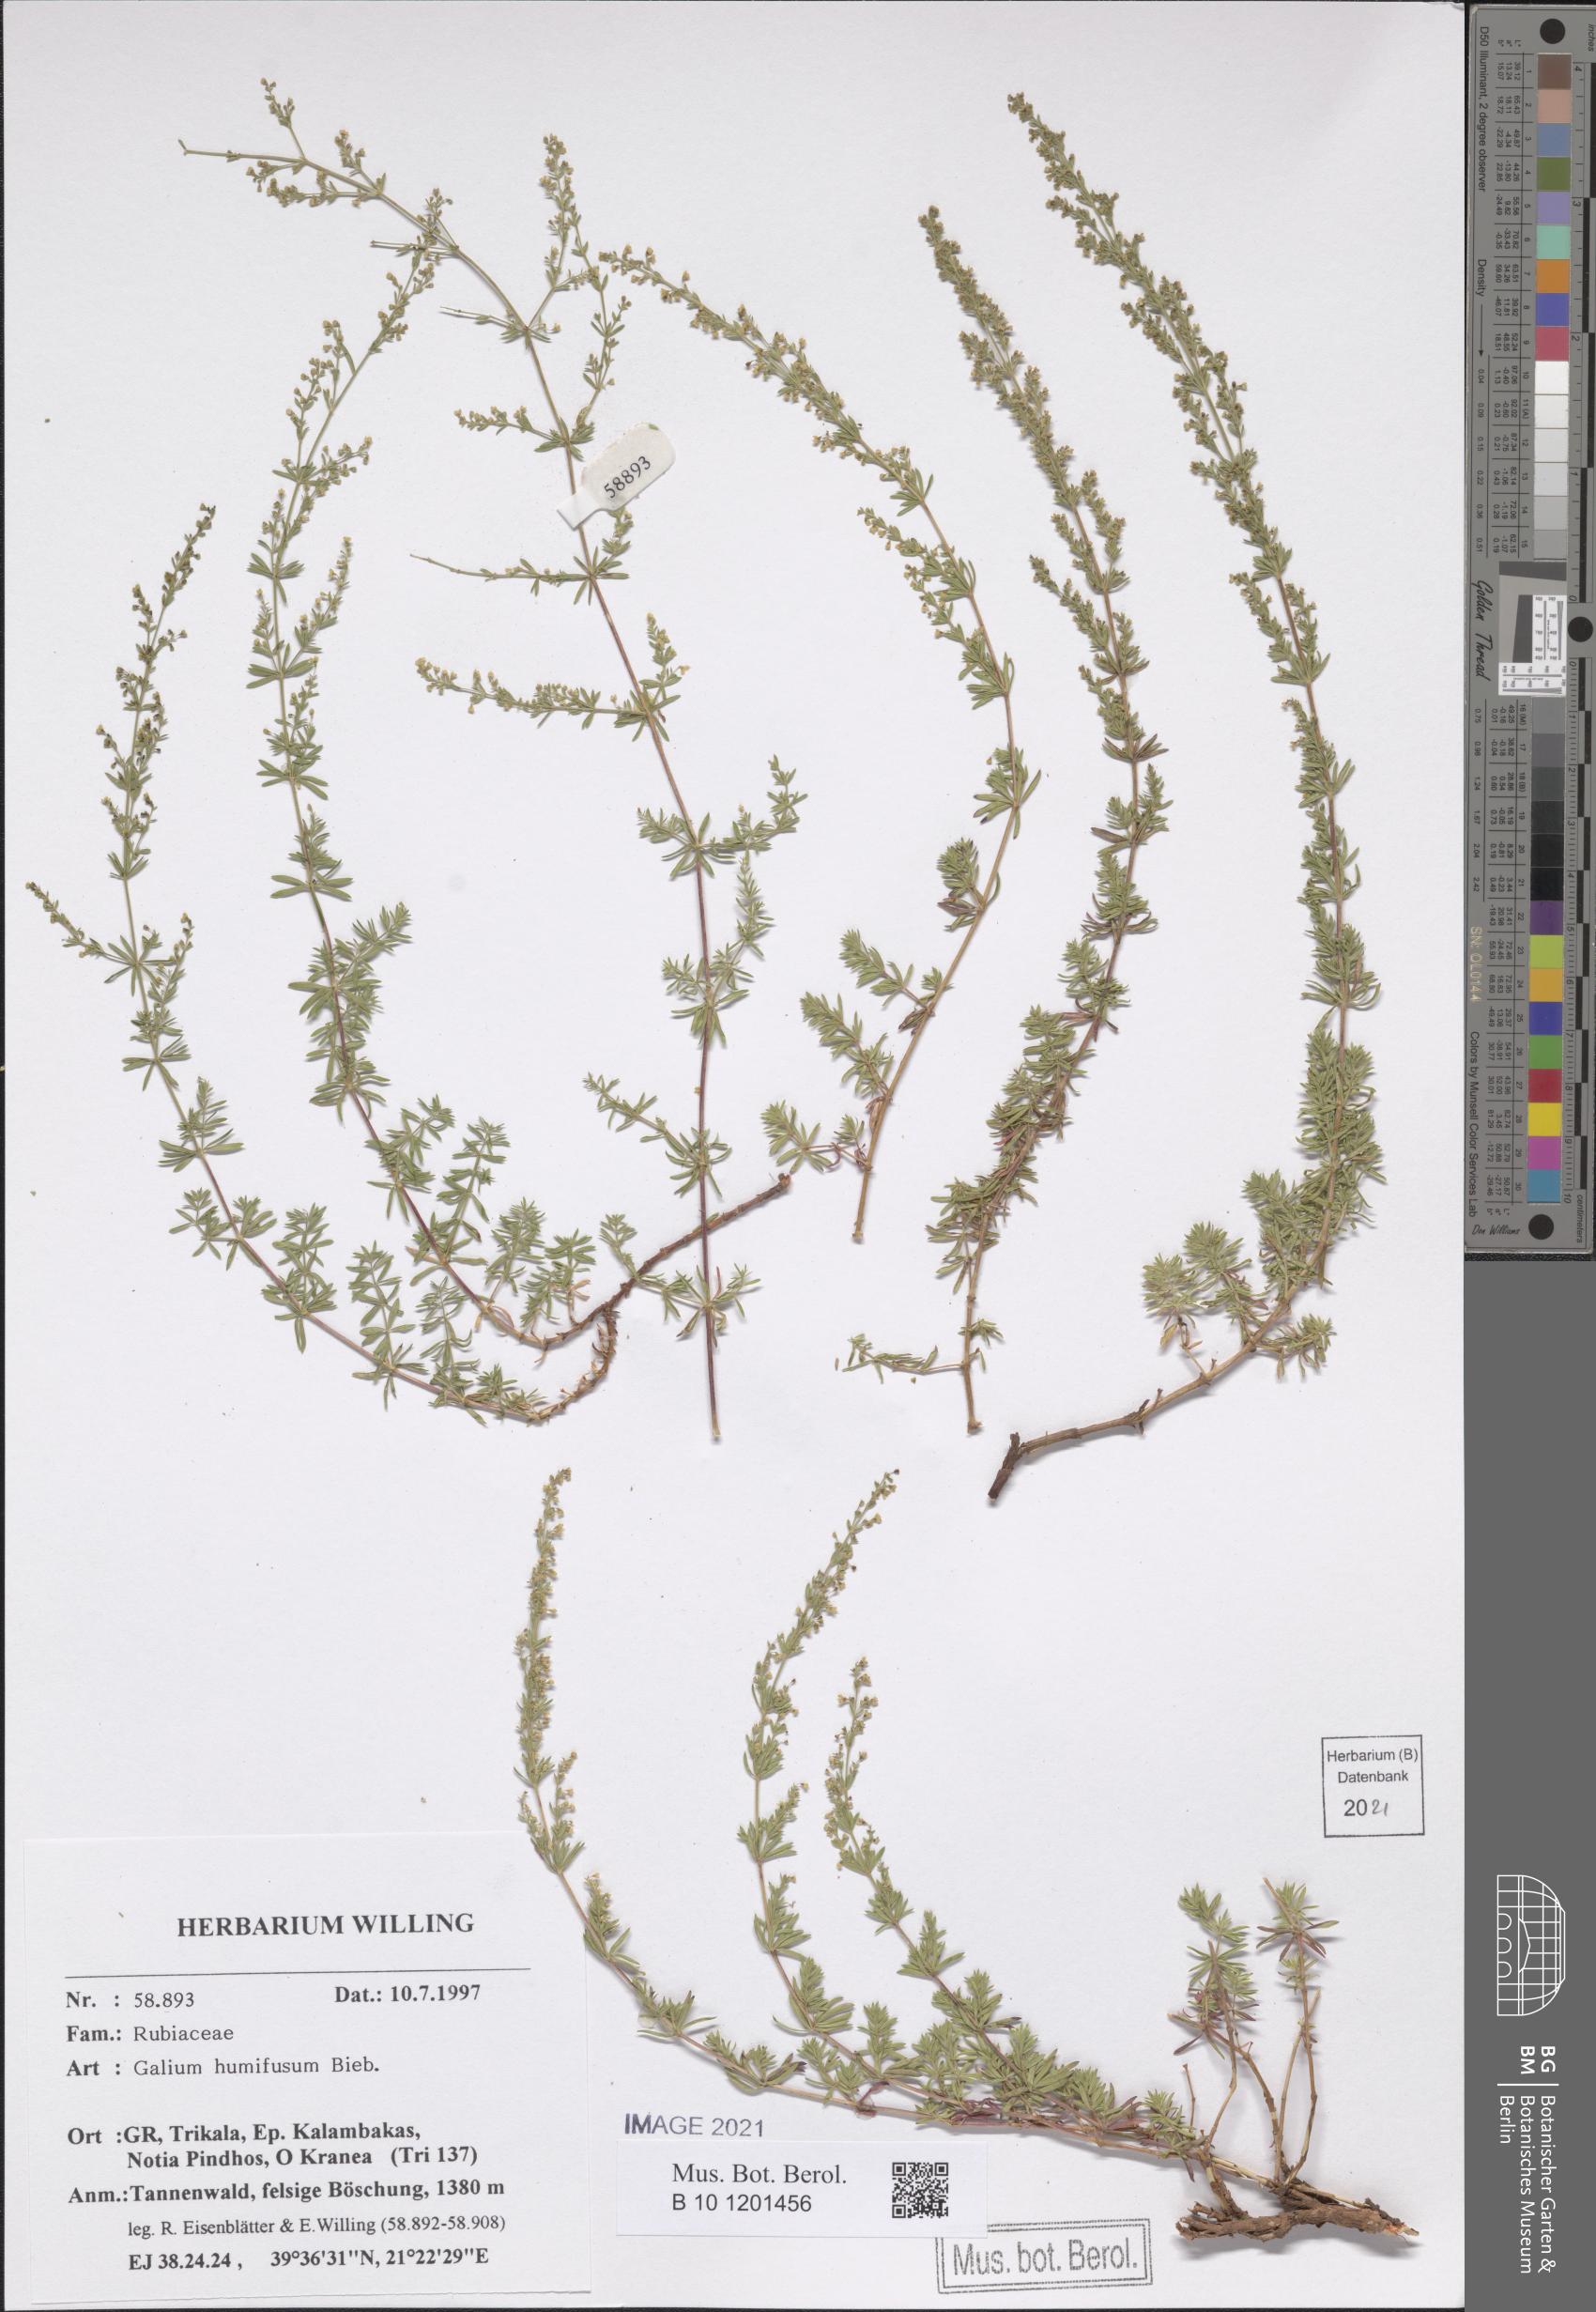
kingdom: Plantae
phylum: Tracheophyta
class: Magnoliopsida
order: Gentianales
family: Rubiaceae
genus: Galium
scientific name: Galium humifusum
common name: Spreading bedstraw
